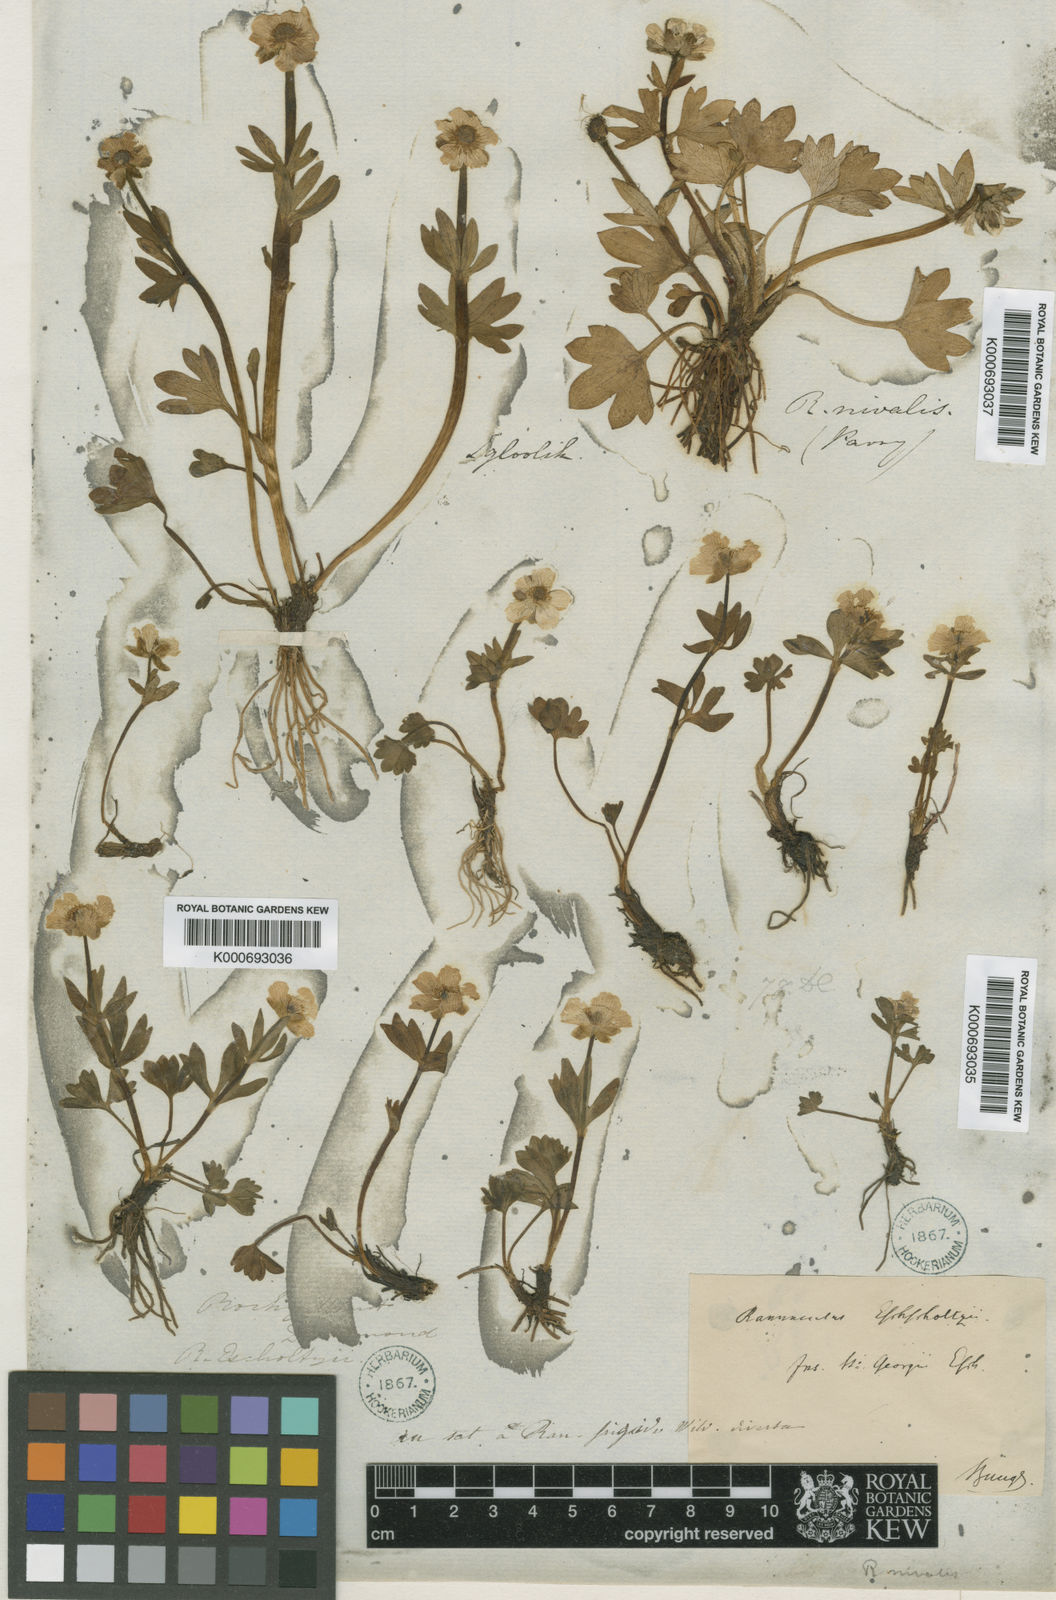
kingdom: Plantae
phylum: Tracheophyta
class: Magnoliopsida
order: Ranunculales
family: Ranunculaceae
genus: Ranunculus
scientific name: Ranunculus eschscholtzii
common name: Eschscholtz's buttercup
